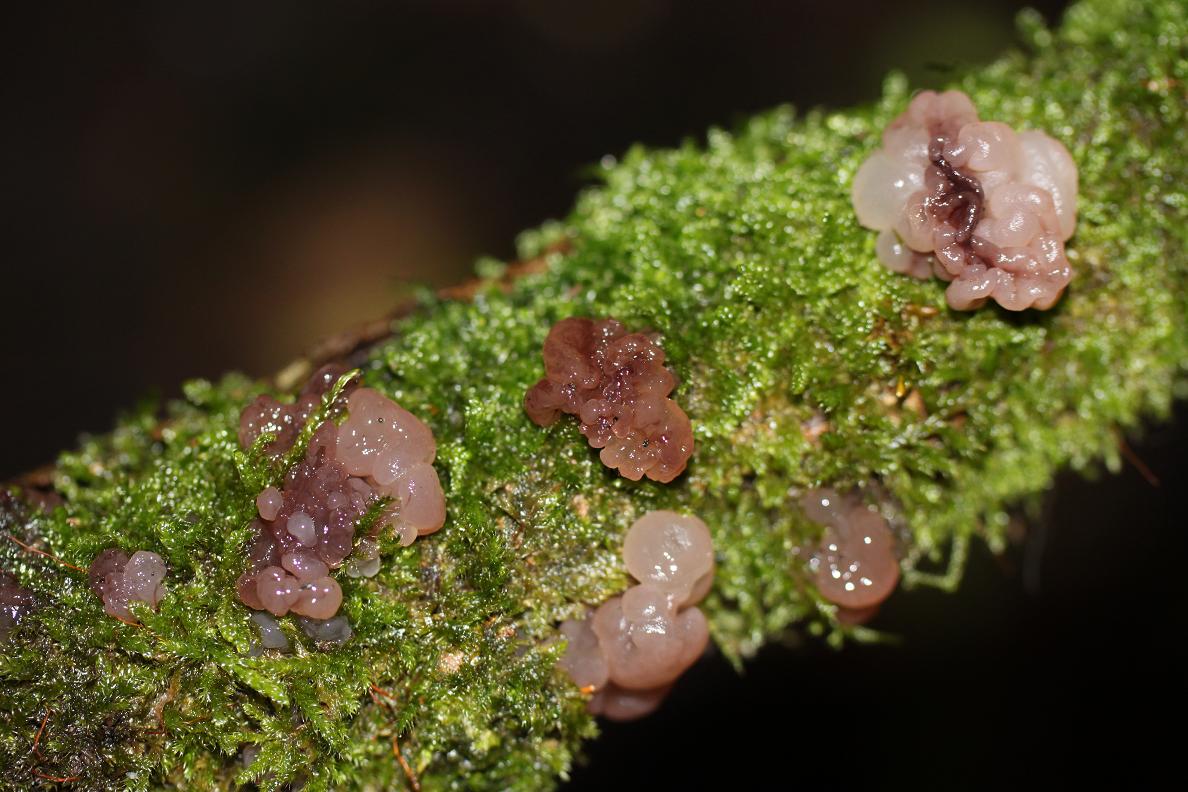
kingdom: Fungi
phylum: Ascomycota
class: Leotiomycetes
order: Helotiales
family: Gelatinodiscaceae
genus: Ascotremella
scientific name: Ascotremella faginea
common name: hjerne-bævreskive
